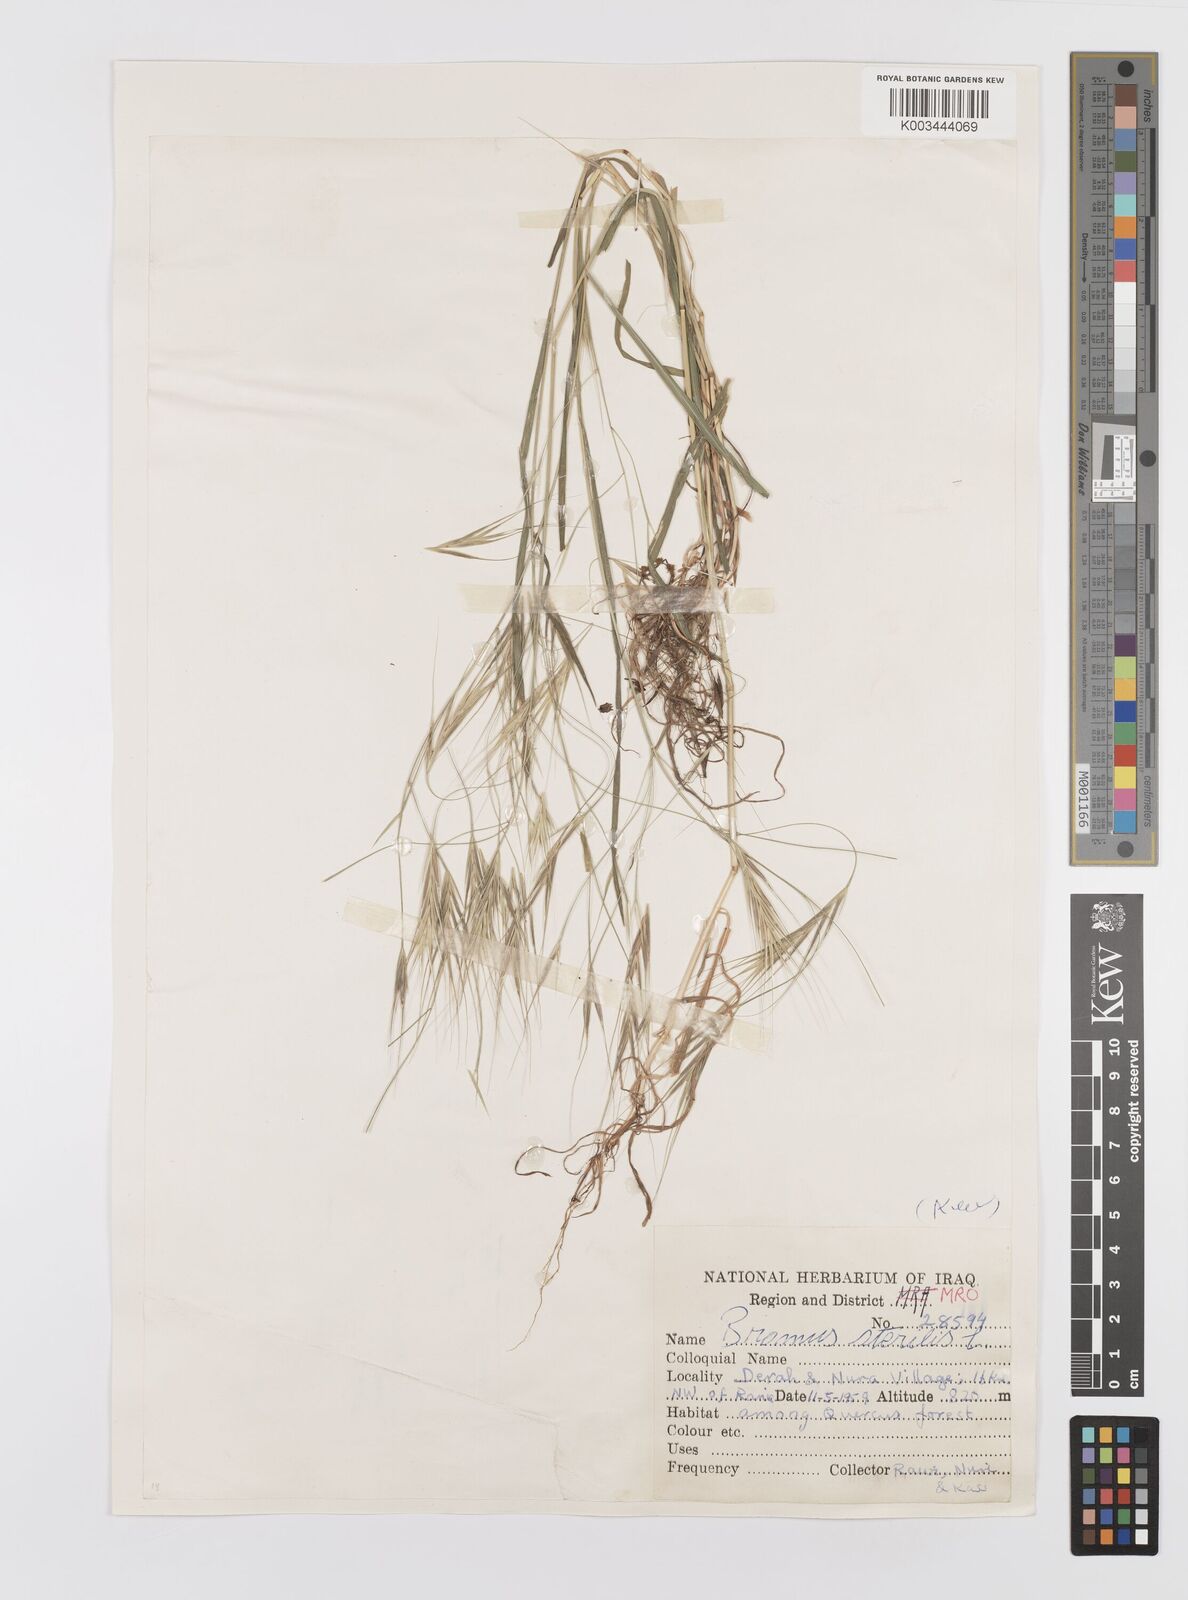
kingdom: Plantae
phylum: Tracheophyta
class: Liliopsida
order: Poales
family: Poaceae
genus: Bromus
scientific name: Bromus sterilis
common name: Poverty brome
